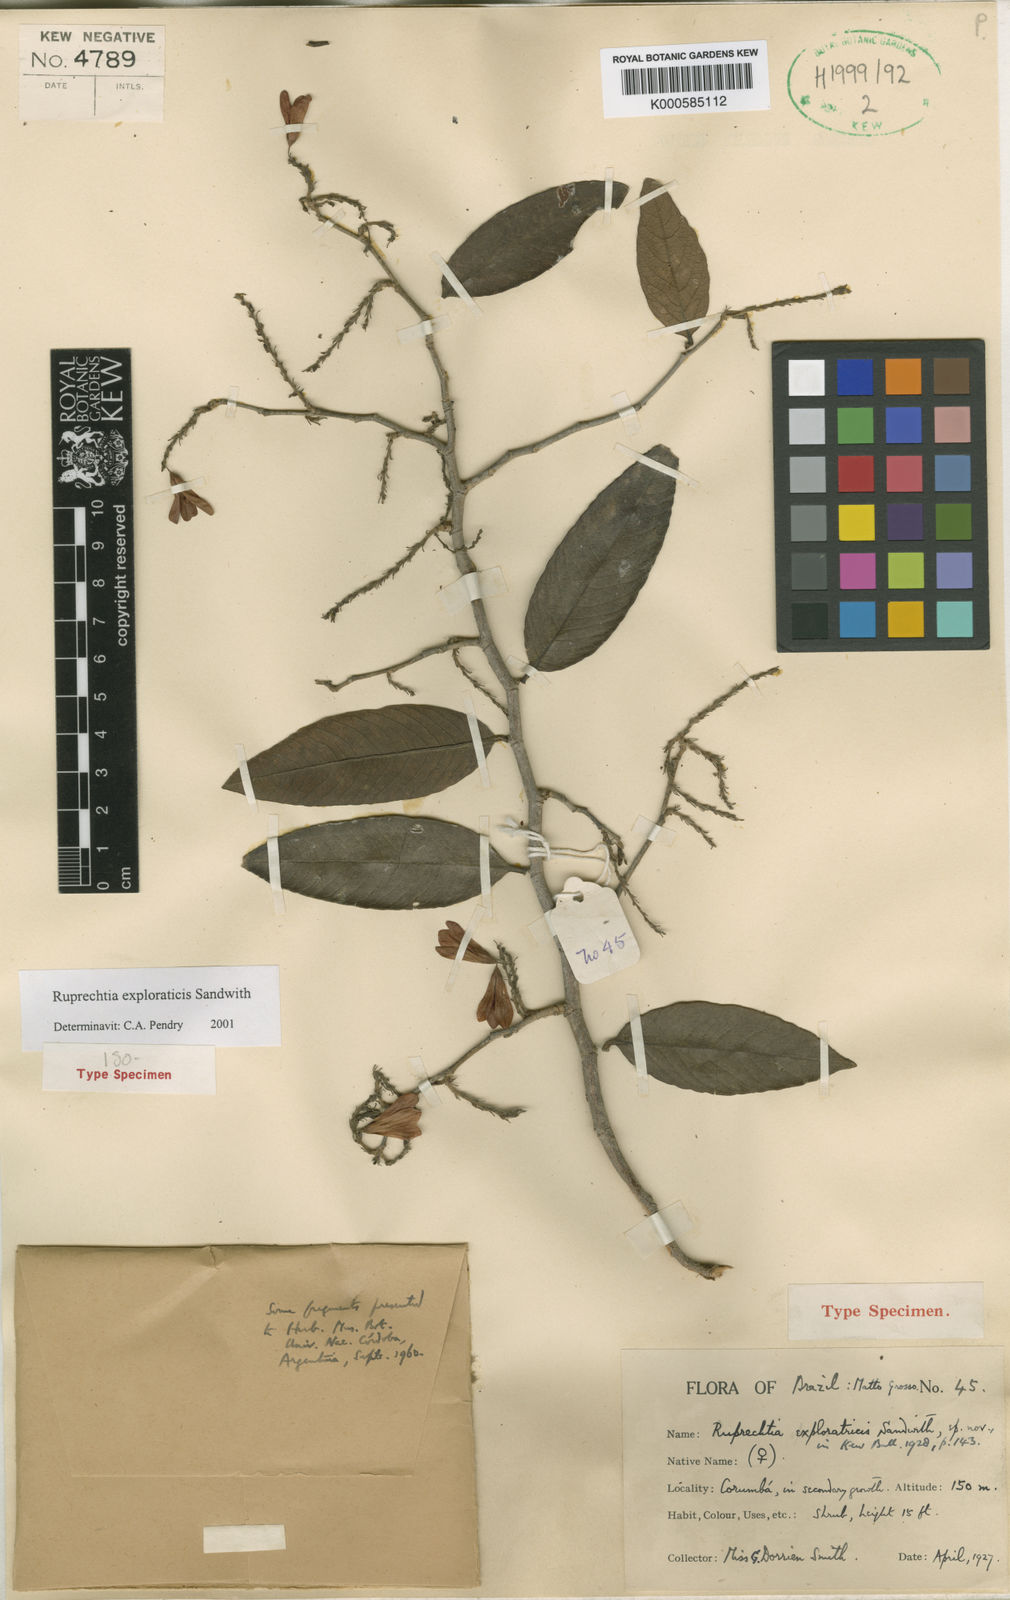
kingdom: Plantae
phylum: Tracheophyta
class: Magnoliopsida
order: Caryophyllales
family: Polygonaceae
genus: Ruprechtia
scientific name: Ruprechtia exploratricis
